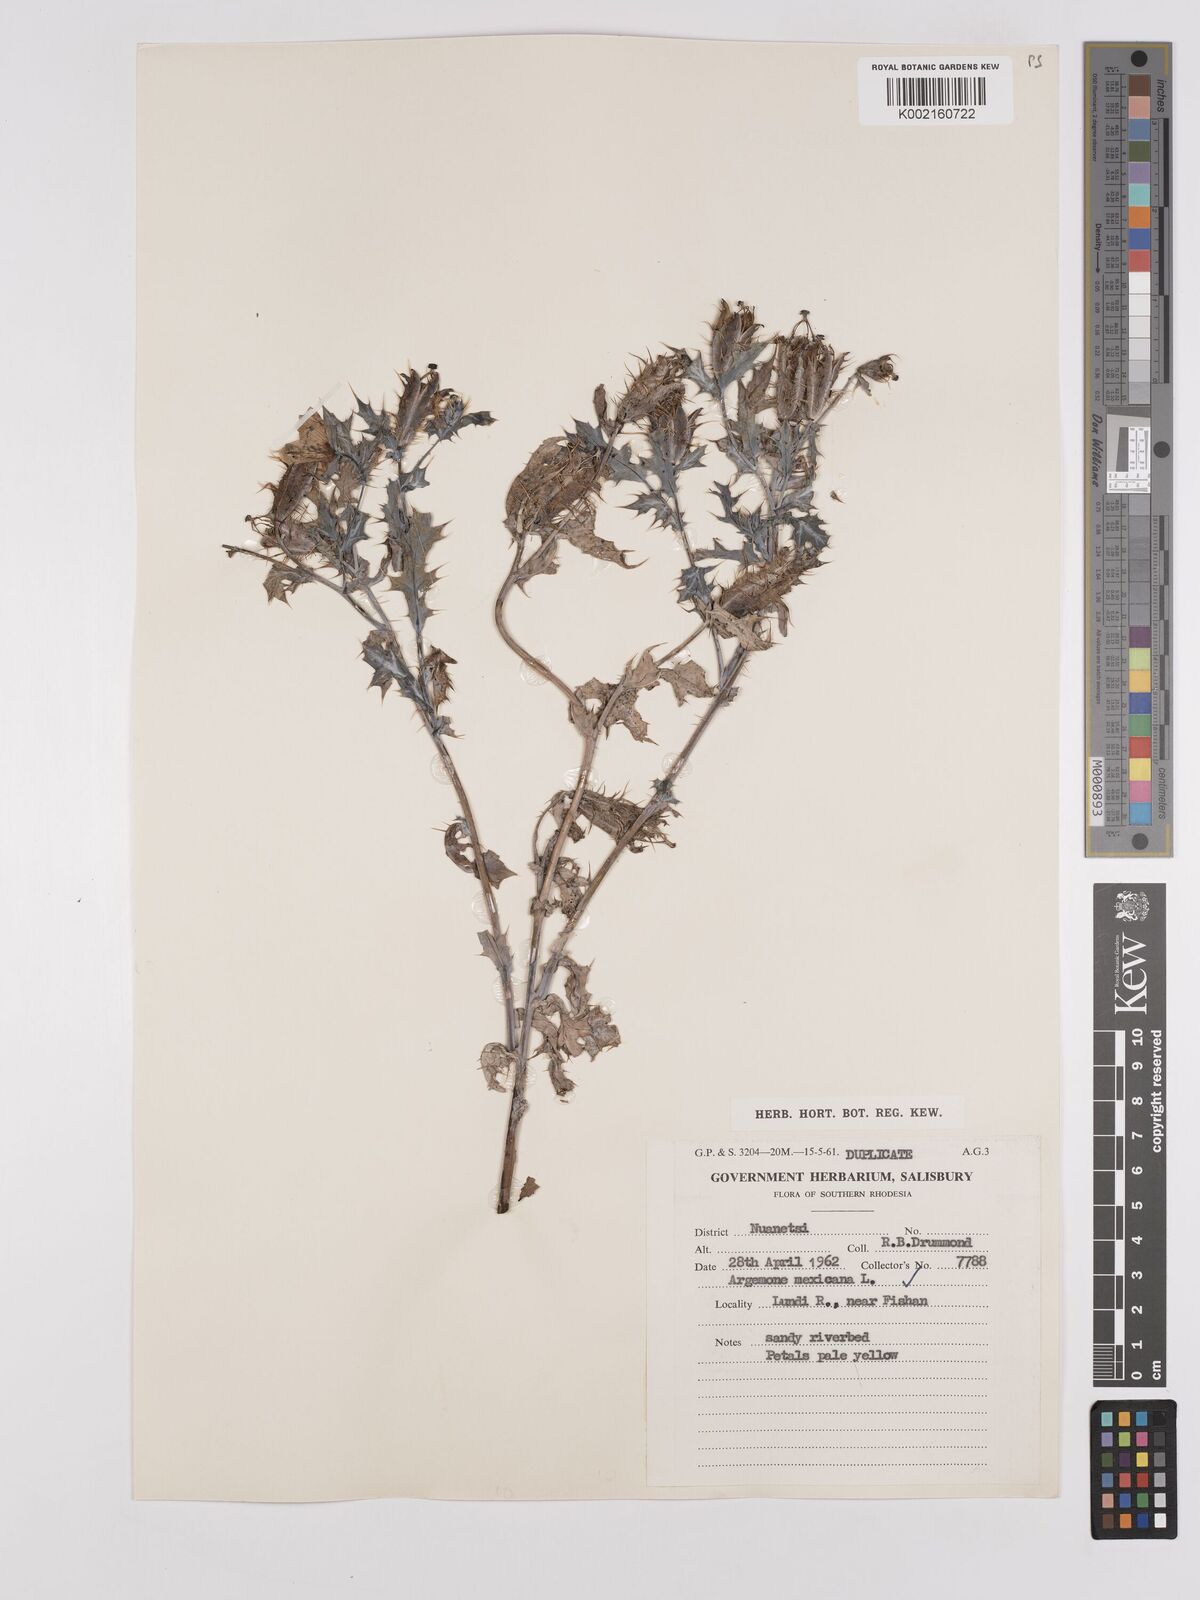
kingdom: Plantae
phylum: Tracheophyta
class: Magnoliopsida
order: Ranunculales
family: Papaveraceae
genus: Argemone
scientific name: Argemone mexicana
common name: Mexican poppy
